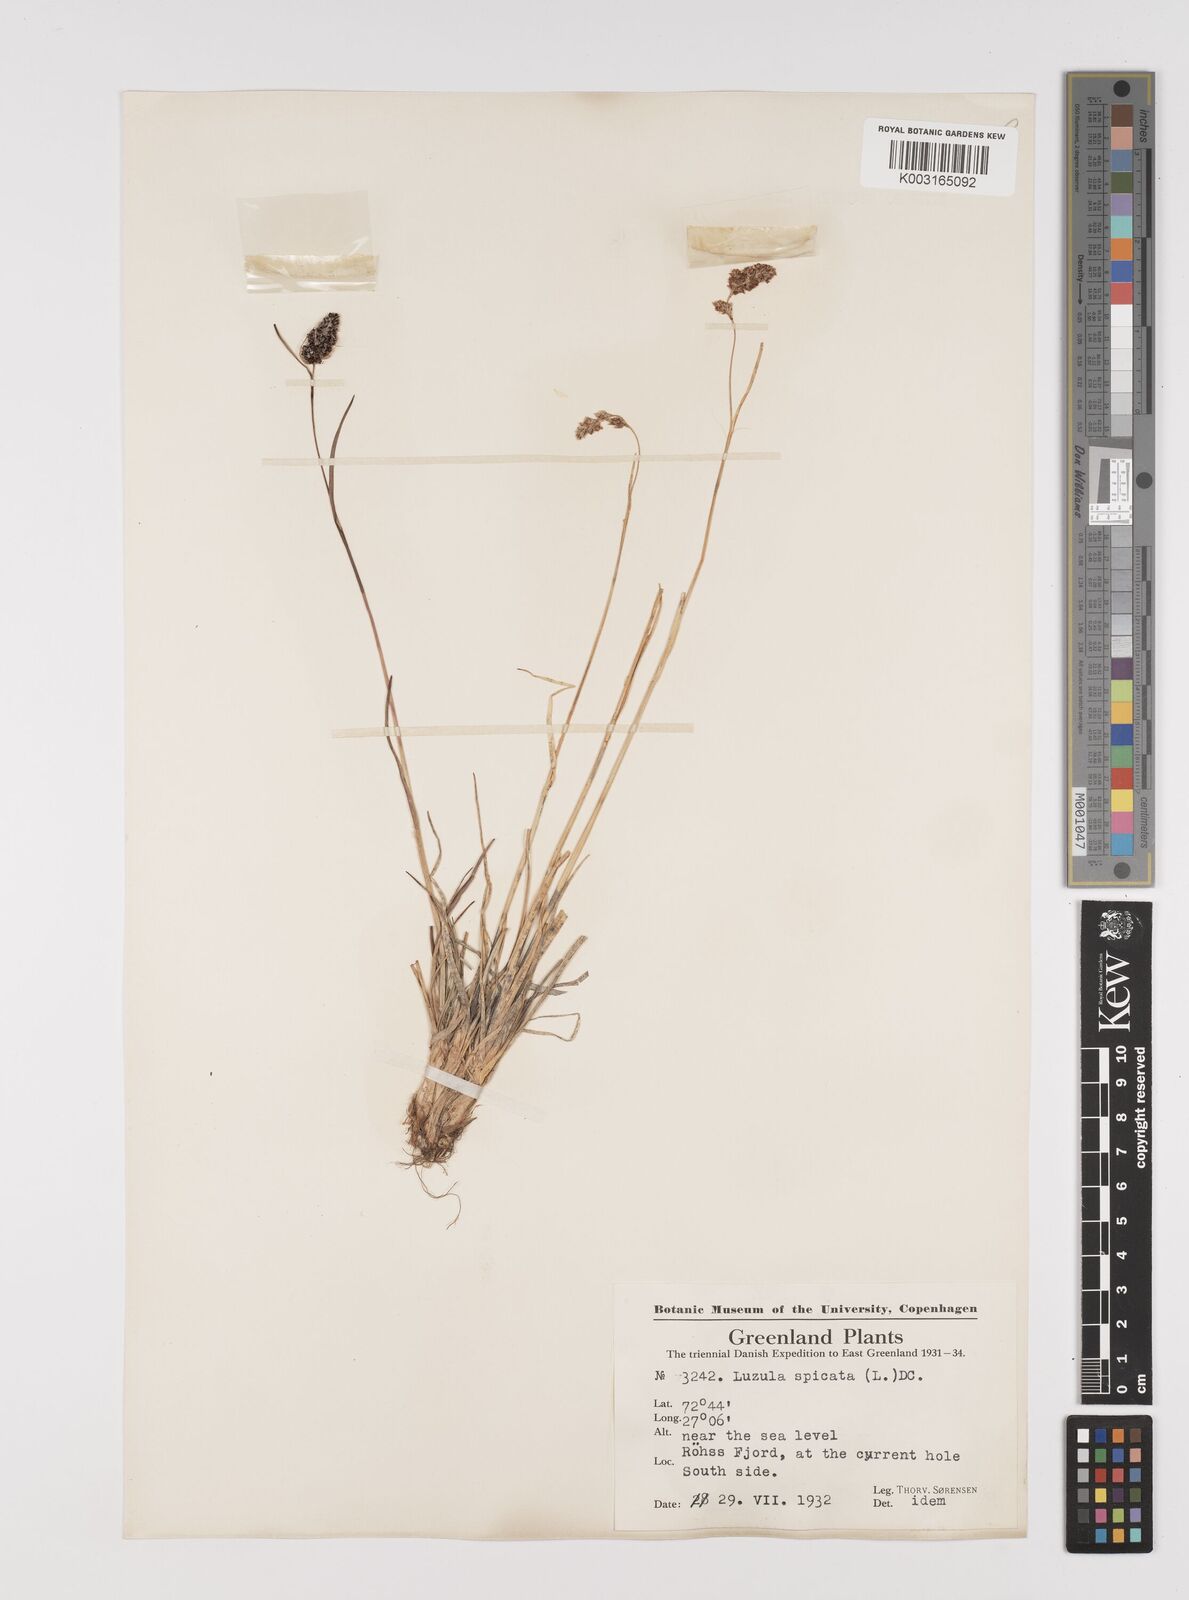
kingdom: Plantae
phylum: Tracheophyta
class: Liliopsida
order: Poales
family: Juncaceae
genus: Luzula
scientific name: Luzula spicata
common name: Spiked wood-rush
